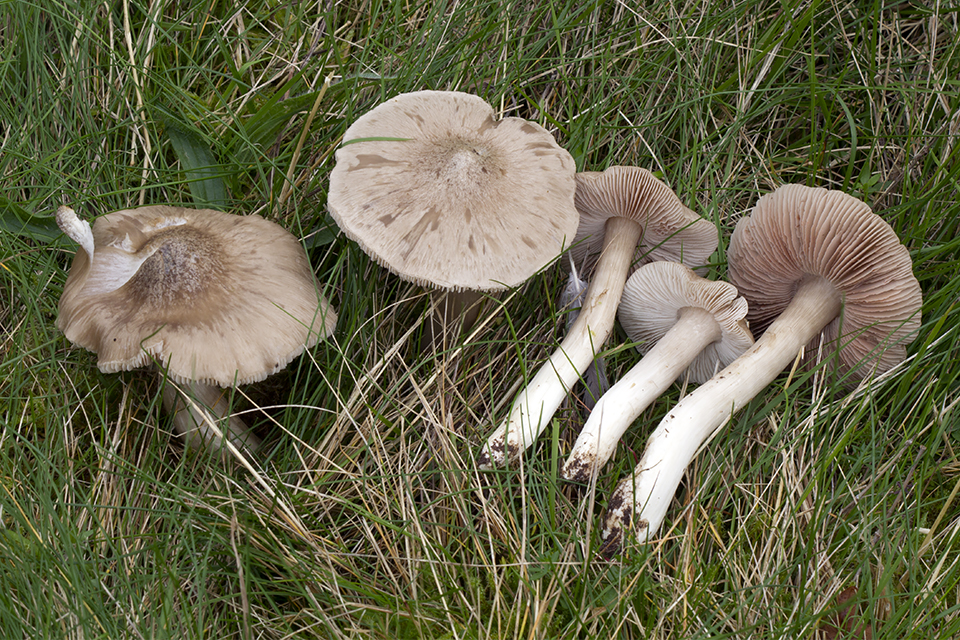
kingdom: Fungi
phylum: Basidiomycota
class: Agaricomycetes
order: Agaricales
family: Entolomataceae
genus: Entoloma
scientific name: Entoloma prunuloides
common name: mel-rødblad
